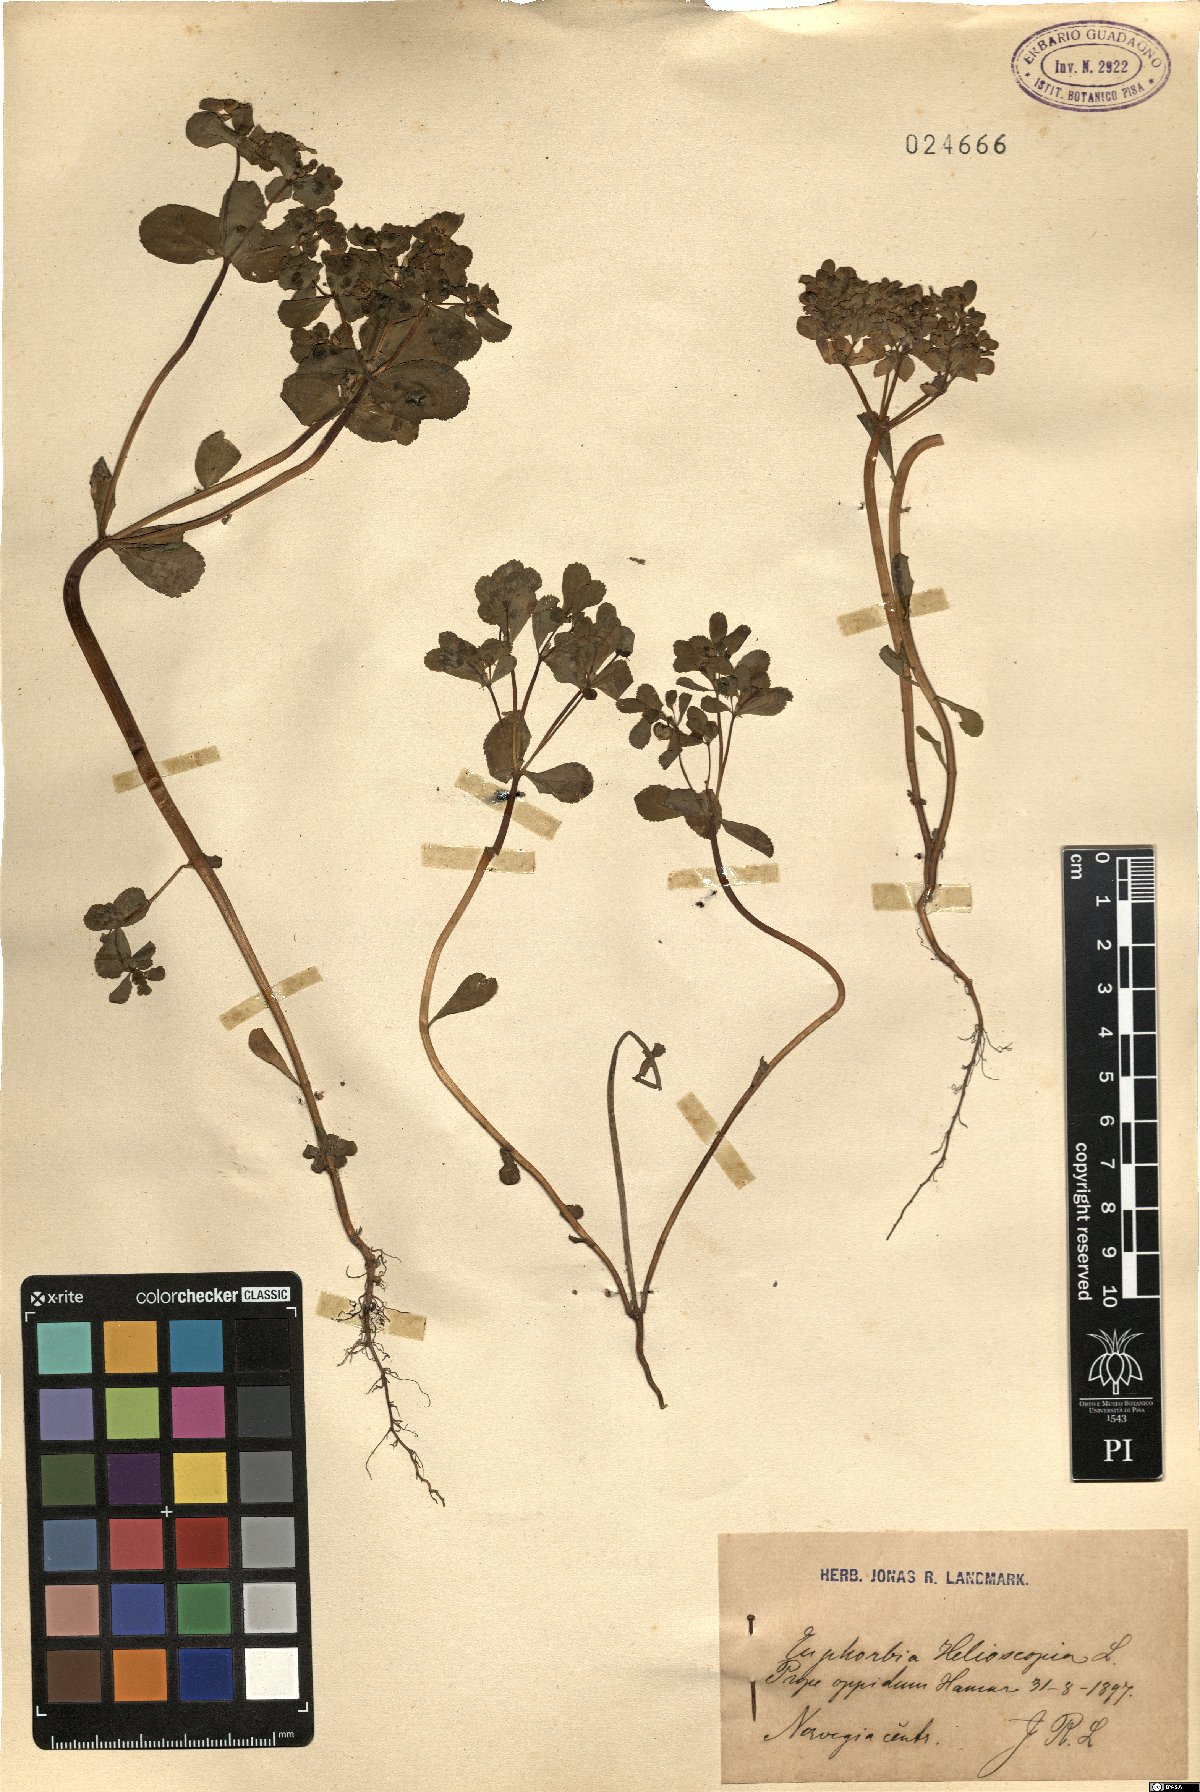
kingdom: Plantae
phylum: Tracheophyta
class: Magnoliopsida
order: Malpighiales
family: Euphorbiaceae
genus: Euphorbia
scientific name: Euphorbia helioscopia
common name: Sun spurge
